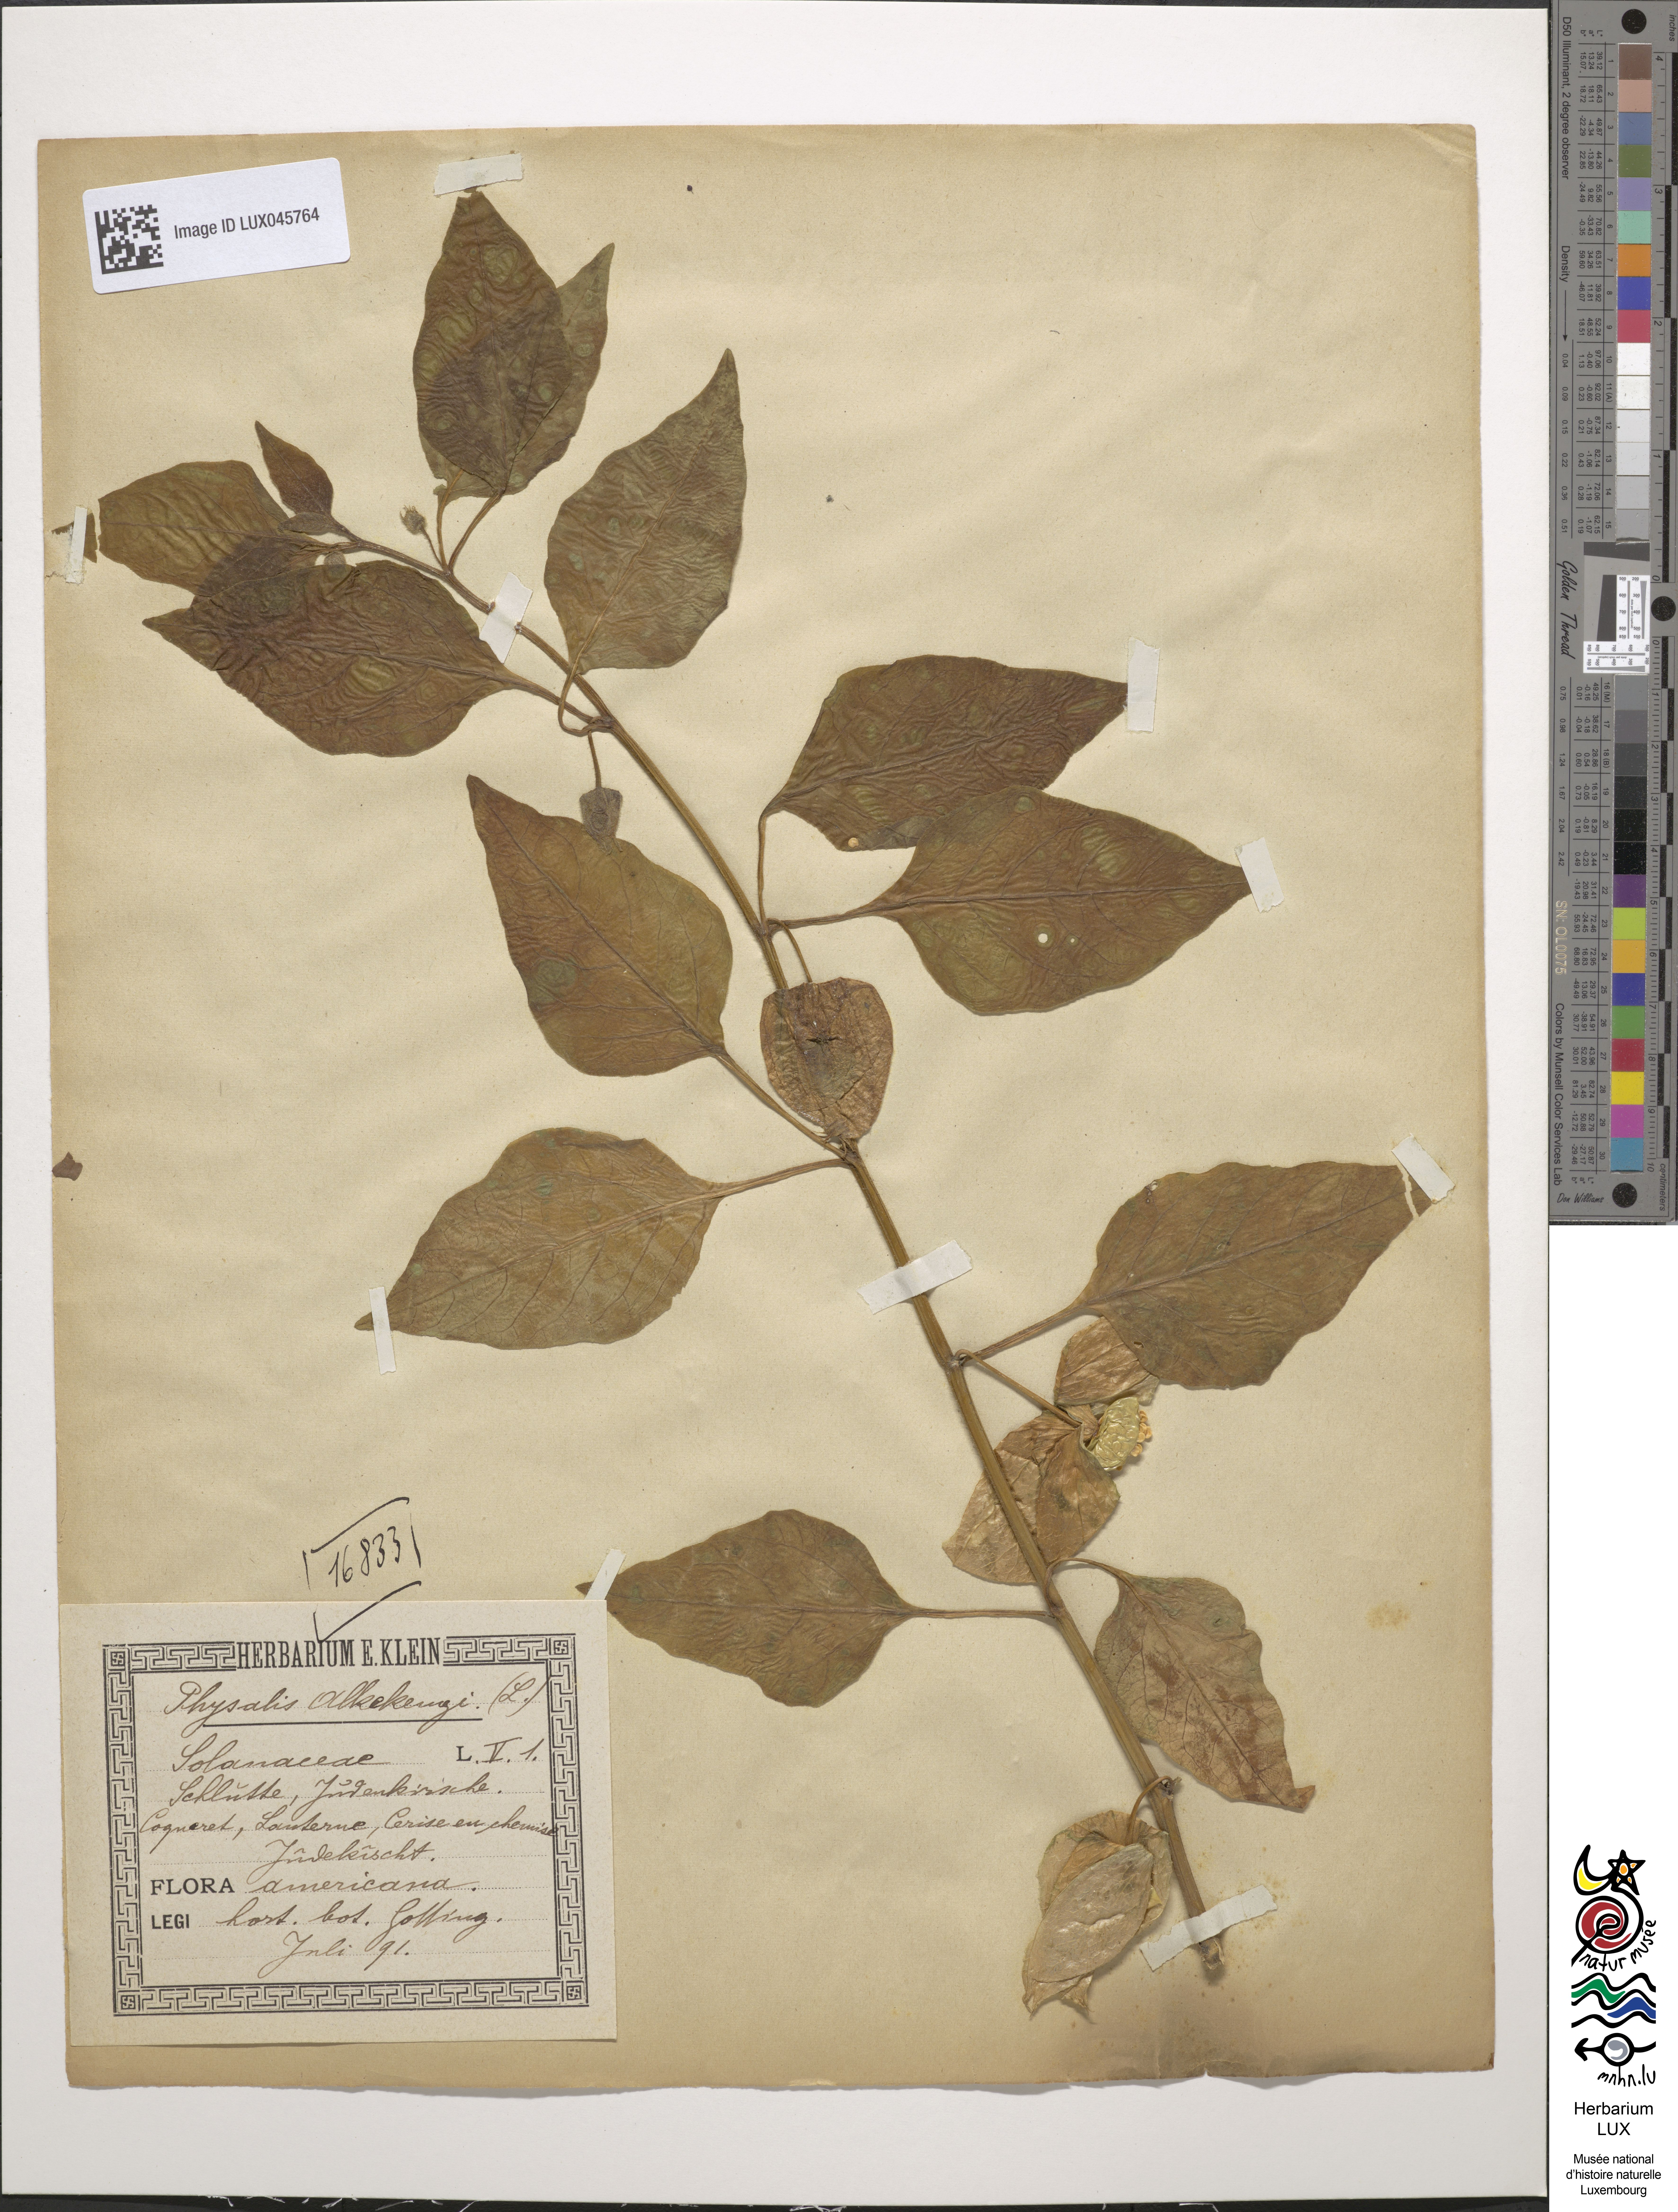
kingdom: Plantae
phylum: Tracheophyta
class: Magnoliopsida
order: Solanales
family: Solanaceae
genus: Alkekengi
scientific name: Alkekengi officinarum
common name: Japanese-lantern
